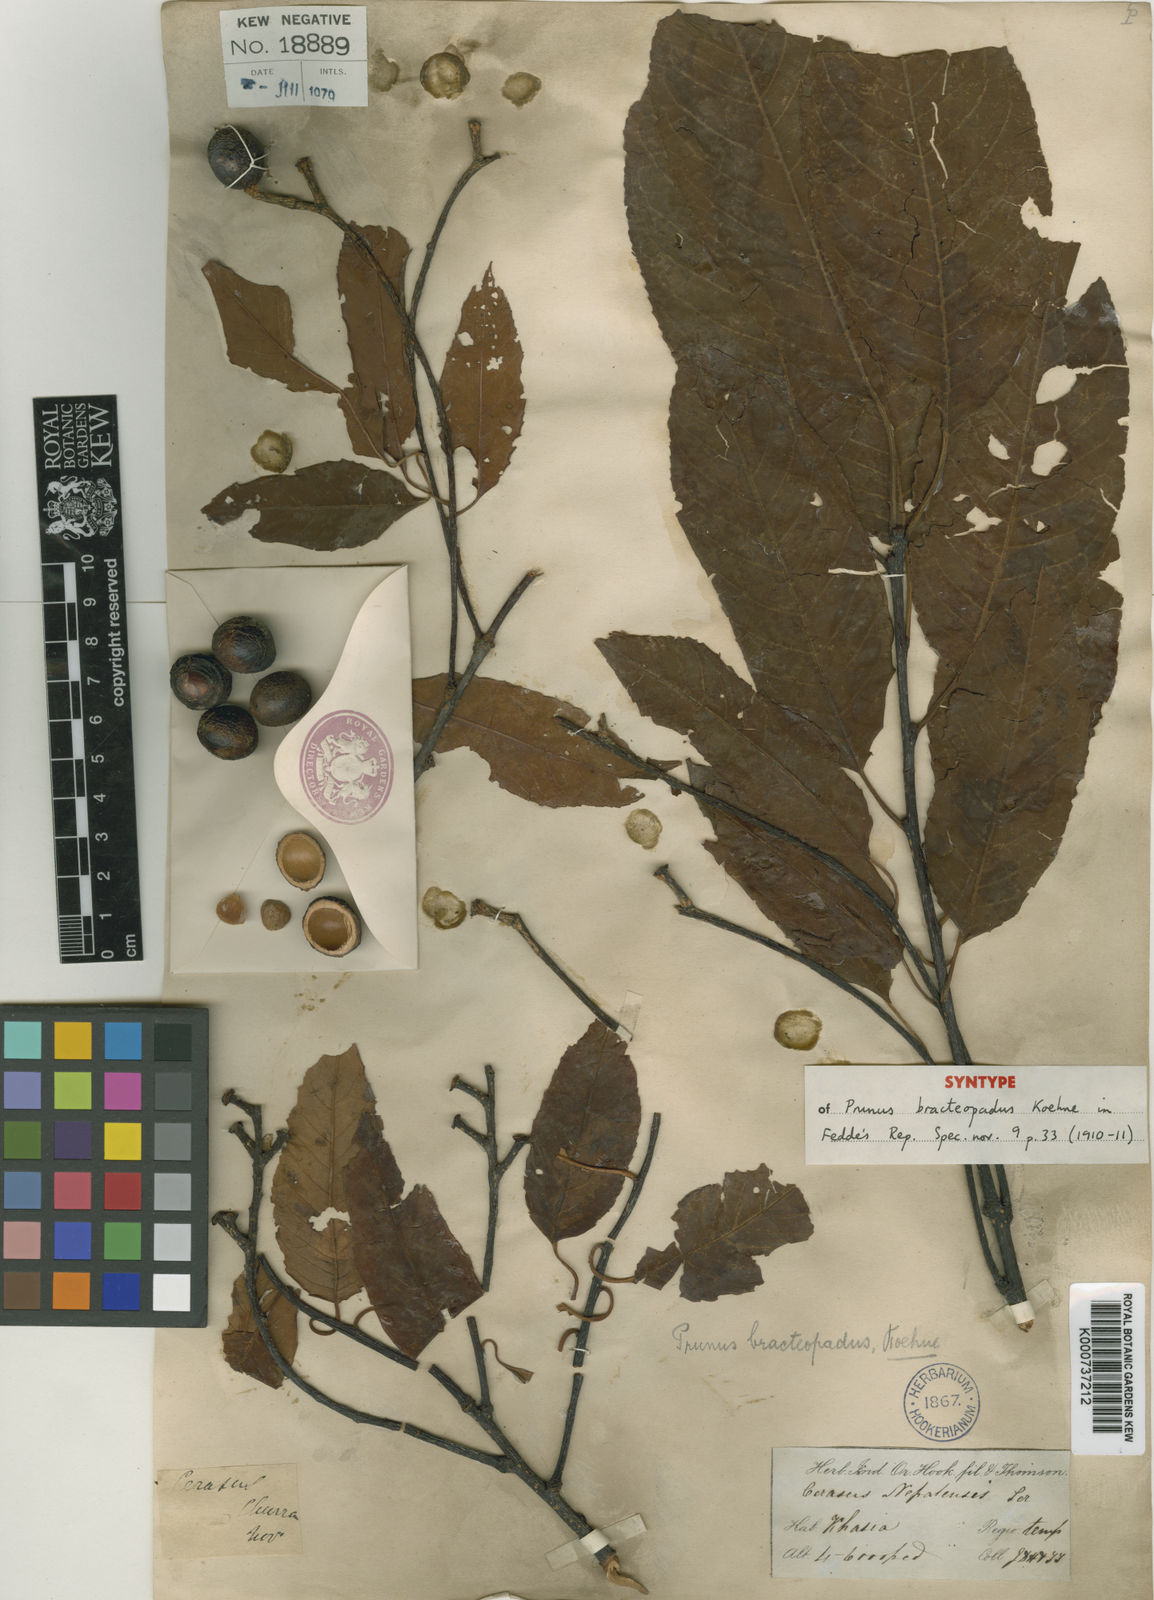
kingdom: Plantae
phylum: Tracheophyta
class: Magnoliopsida
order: Rosales
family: Rosaceae
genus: Prunus
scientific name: Prunus bracteopadus
